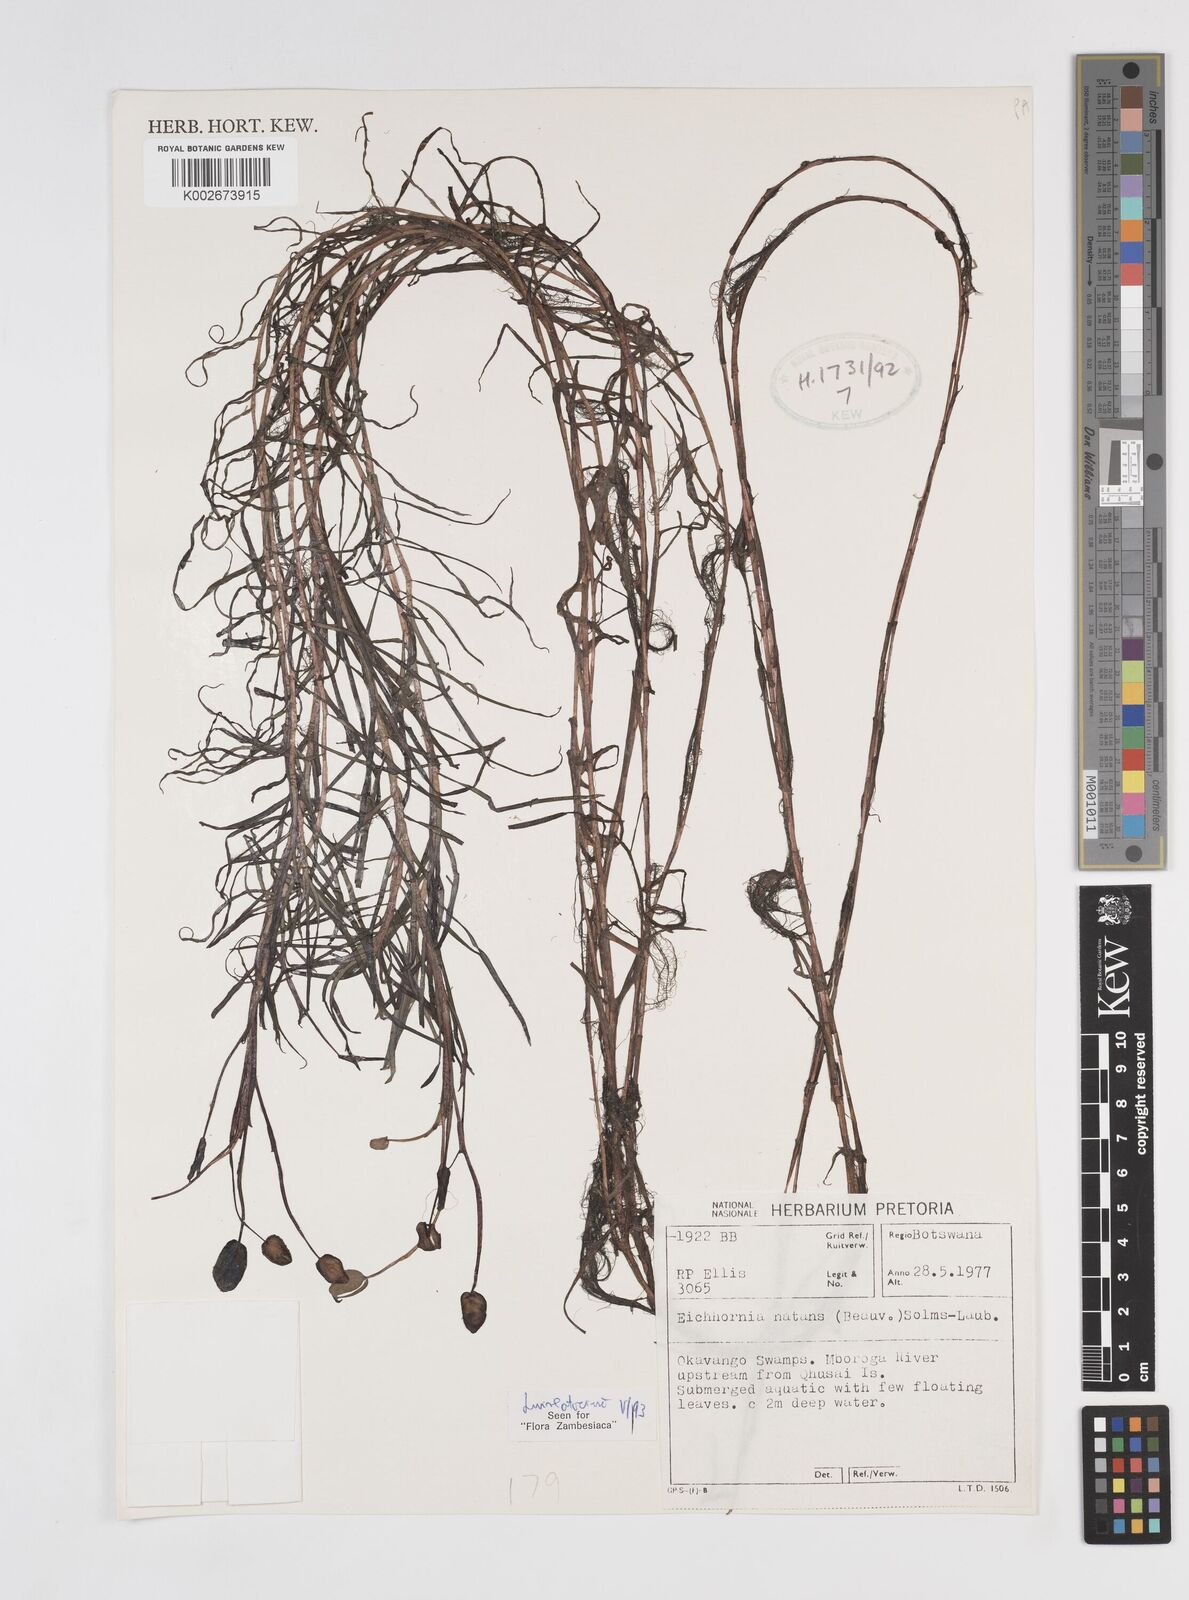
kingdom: Plantae
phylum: Tracheophyta
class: Liliopsida
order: Commelinales
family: Pontederiaceae
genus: Pontederia
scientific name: Pontederia natans
